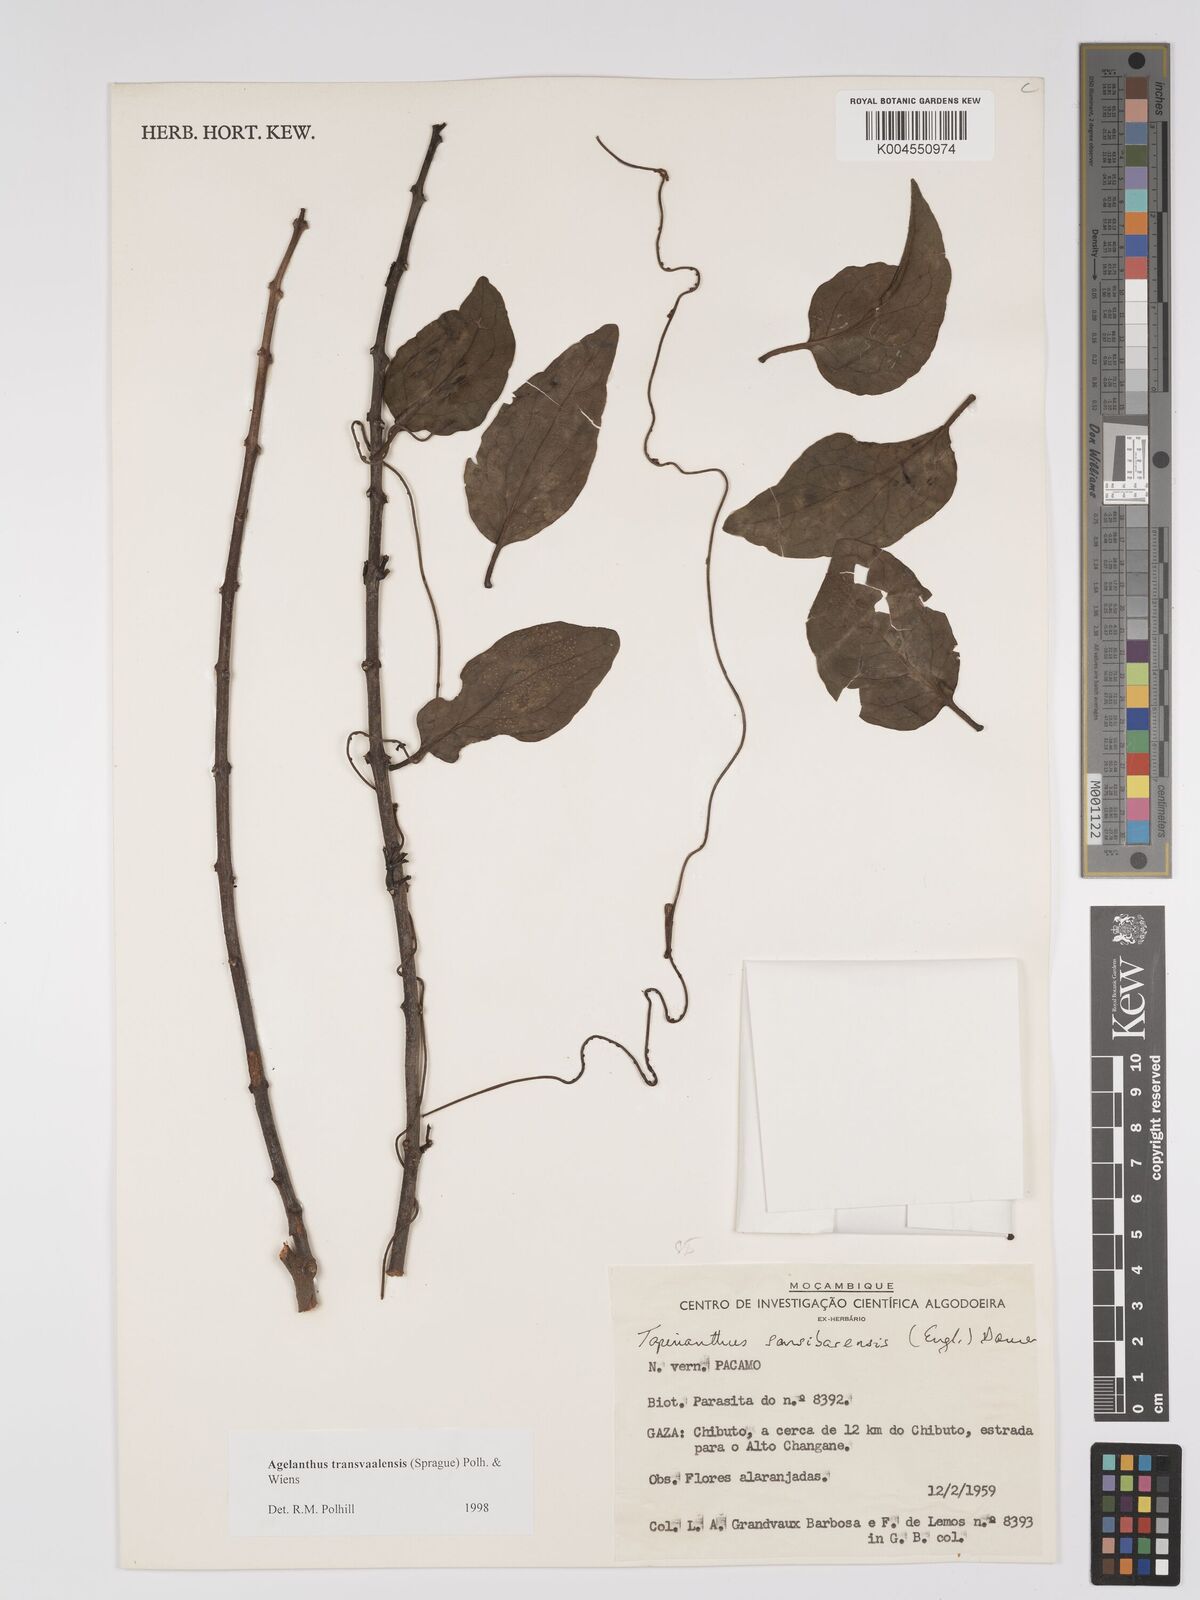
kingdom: Plantae
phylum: Tracheophyta
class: Magnoliopsida
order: Santalales
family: Loranthaceae
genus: Agelanthus
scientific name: Agelanthus transvaalensis
